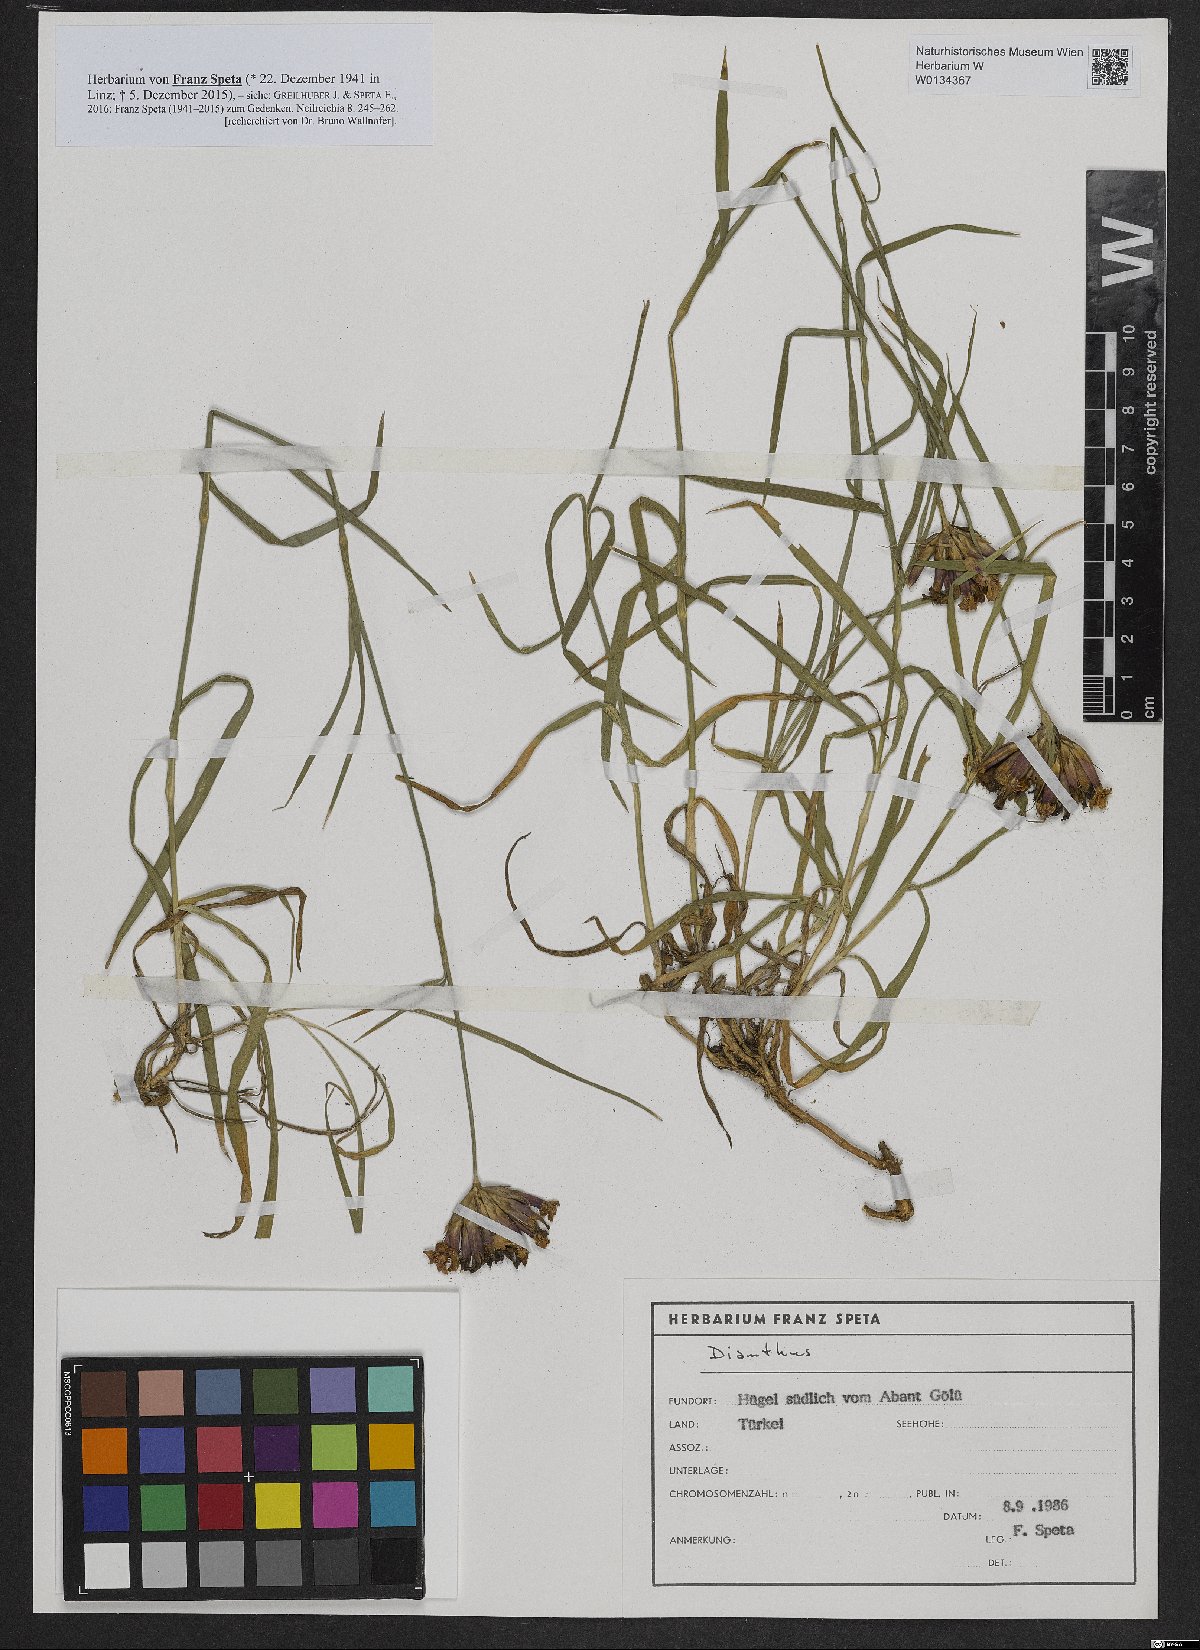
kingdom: Plantae
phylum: Tracheophyta
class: Magnoliopsida
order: Caryophyllales
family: Caryophyllaceae
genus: Dianthus
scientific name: Dianthus
